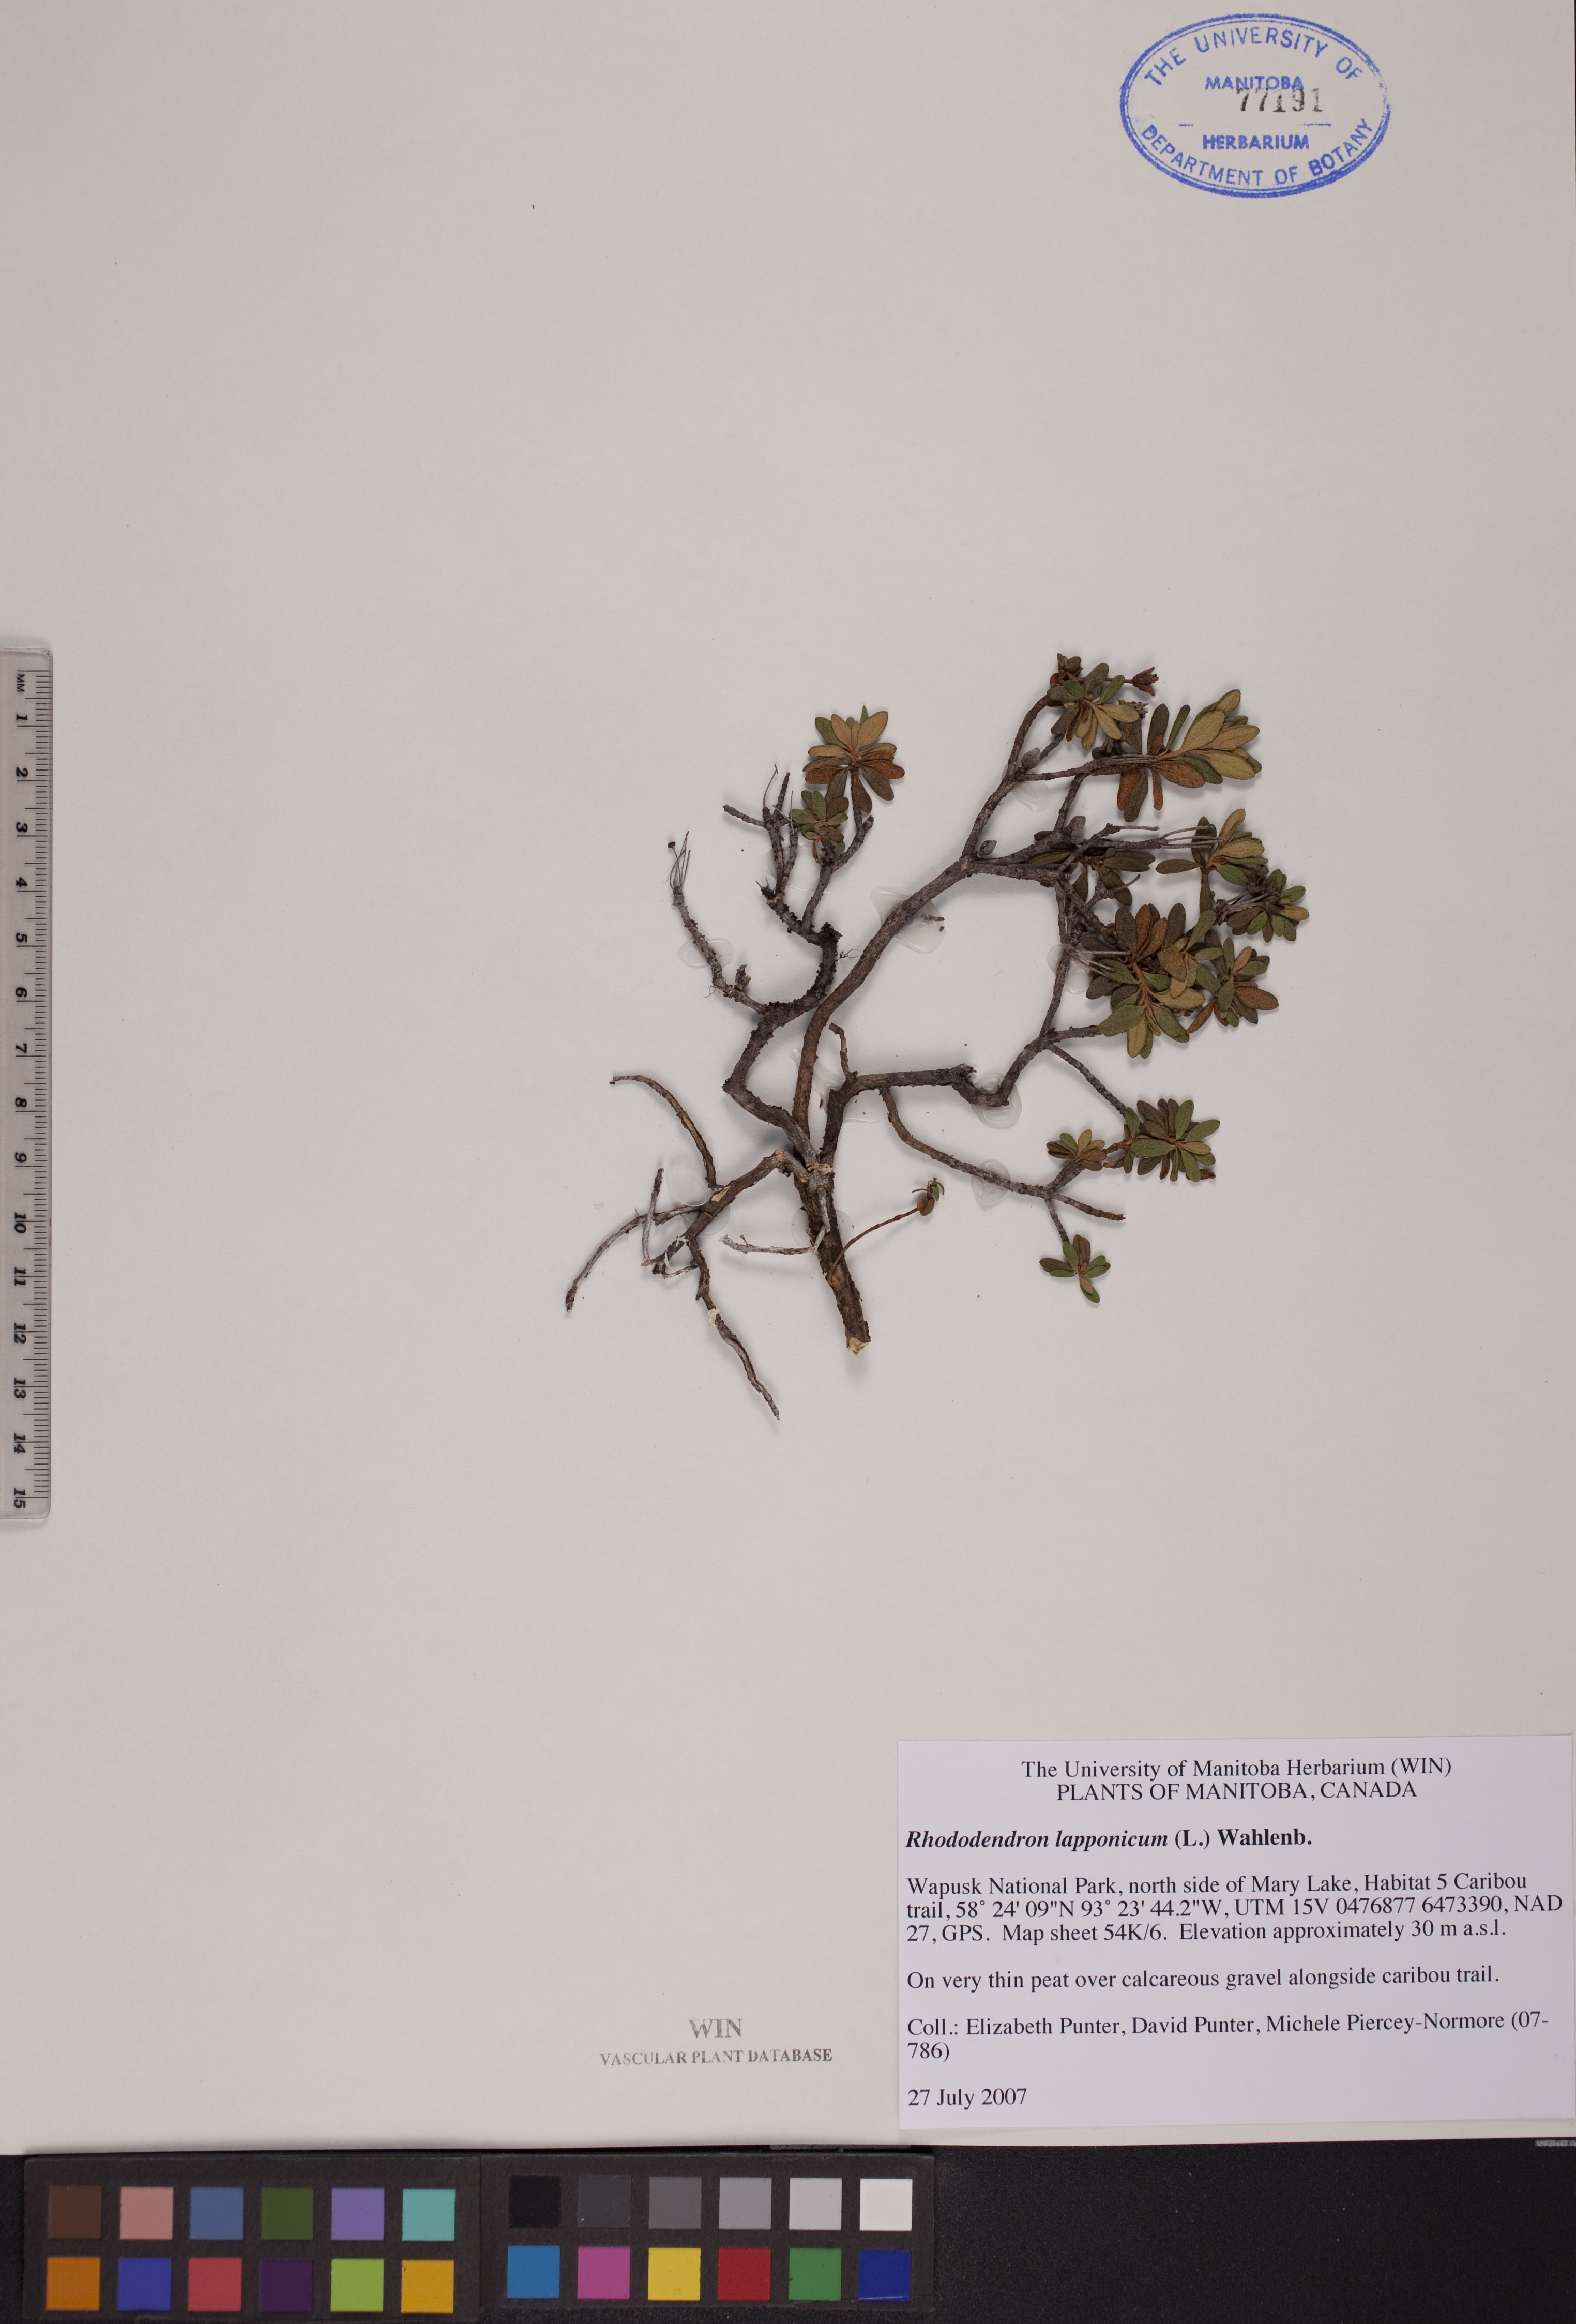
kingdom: Plantae
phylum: Tracheophyta
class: Magnoliopsida
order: Ericales
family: Ericaceae
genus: Rhododendron
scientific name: Rhododendron lapponicum
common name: Lapland rhododendron
